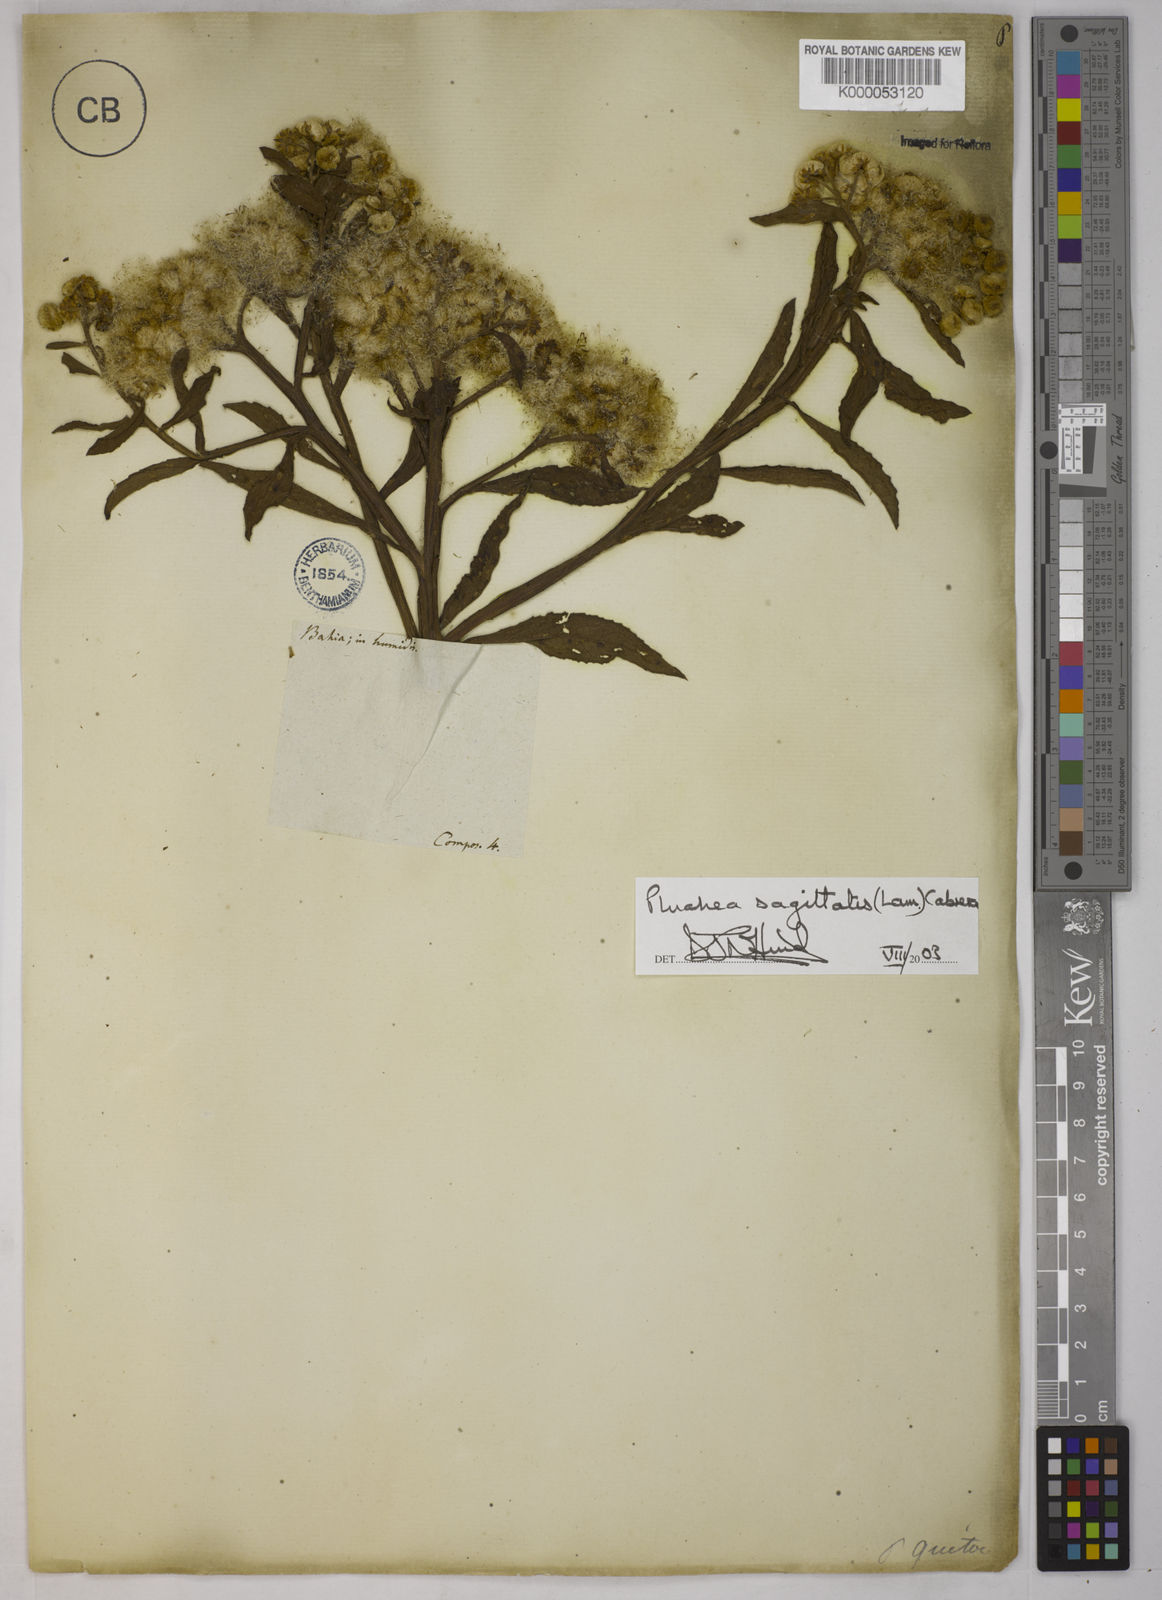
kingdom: Plantae
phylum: Tracheophyta
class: Magnoliopsida
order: Asterales
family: Asteraceae
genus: Pluchea
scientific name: Pluchea sagittalis
